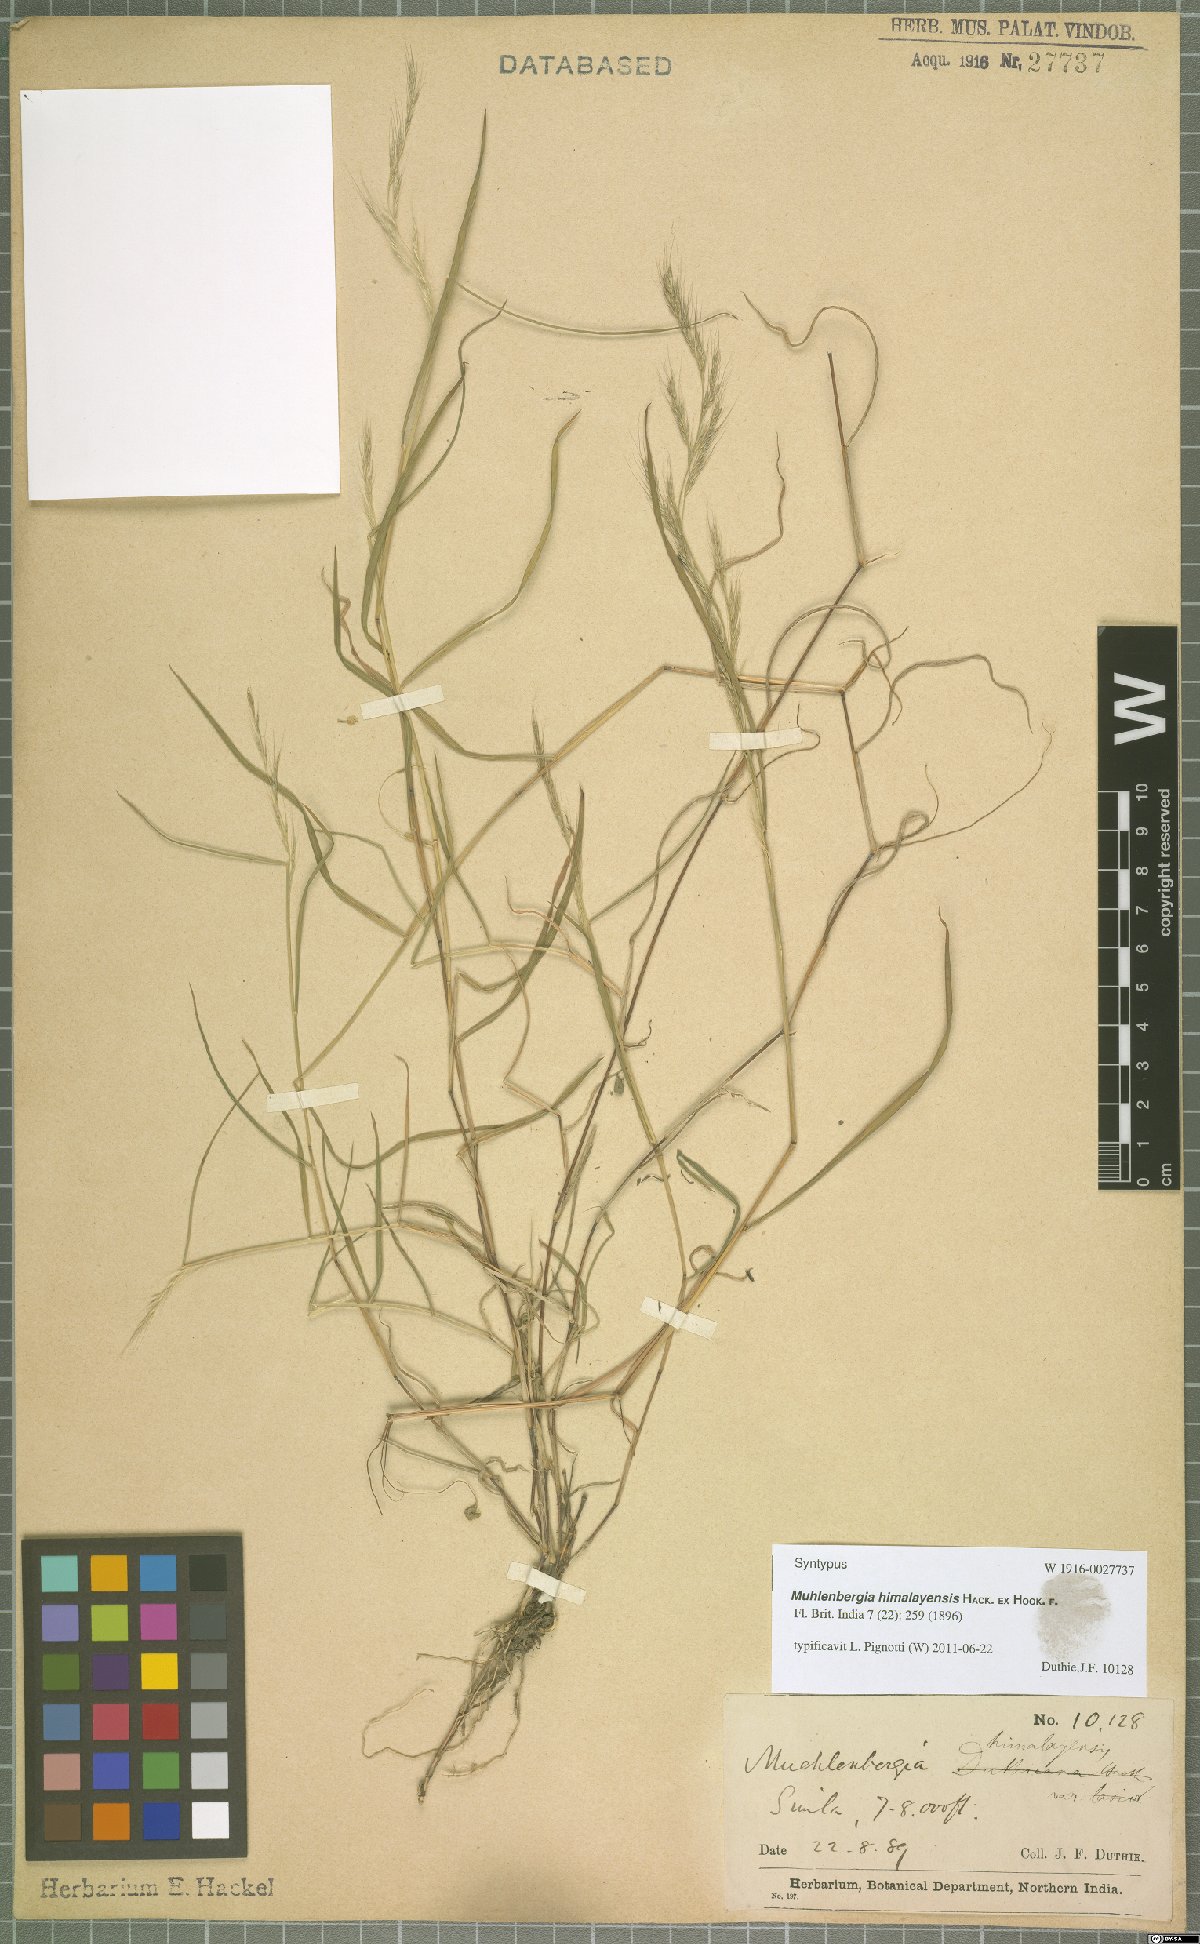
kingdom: Plantae
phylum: Tracheophyta
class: Liliopsida
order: Poales
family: Poaceae
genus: Muhlenbergia
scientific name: Muhlenbergia himalayensis
